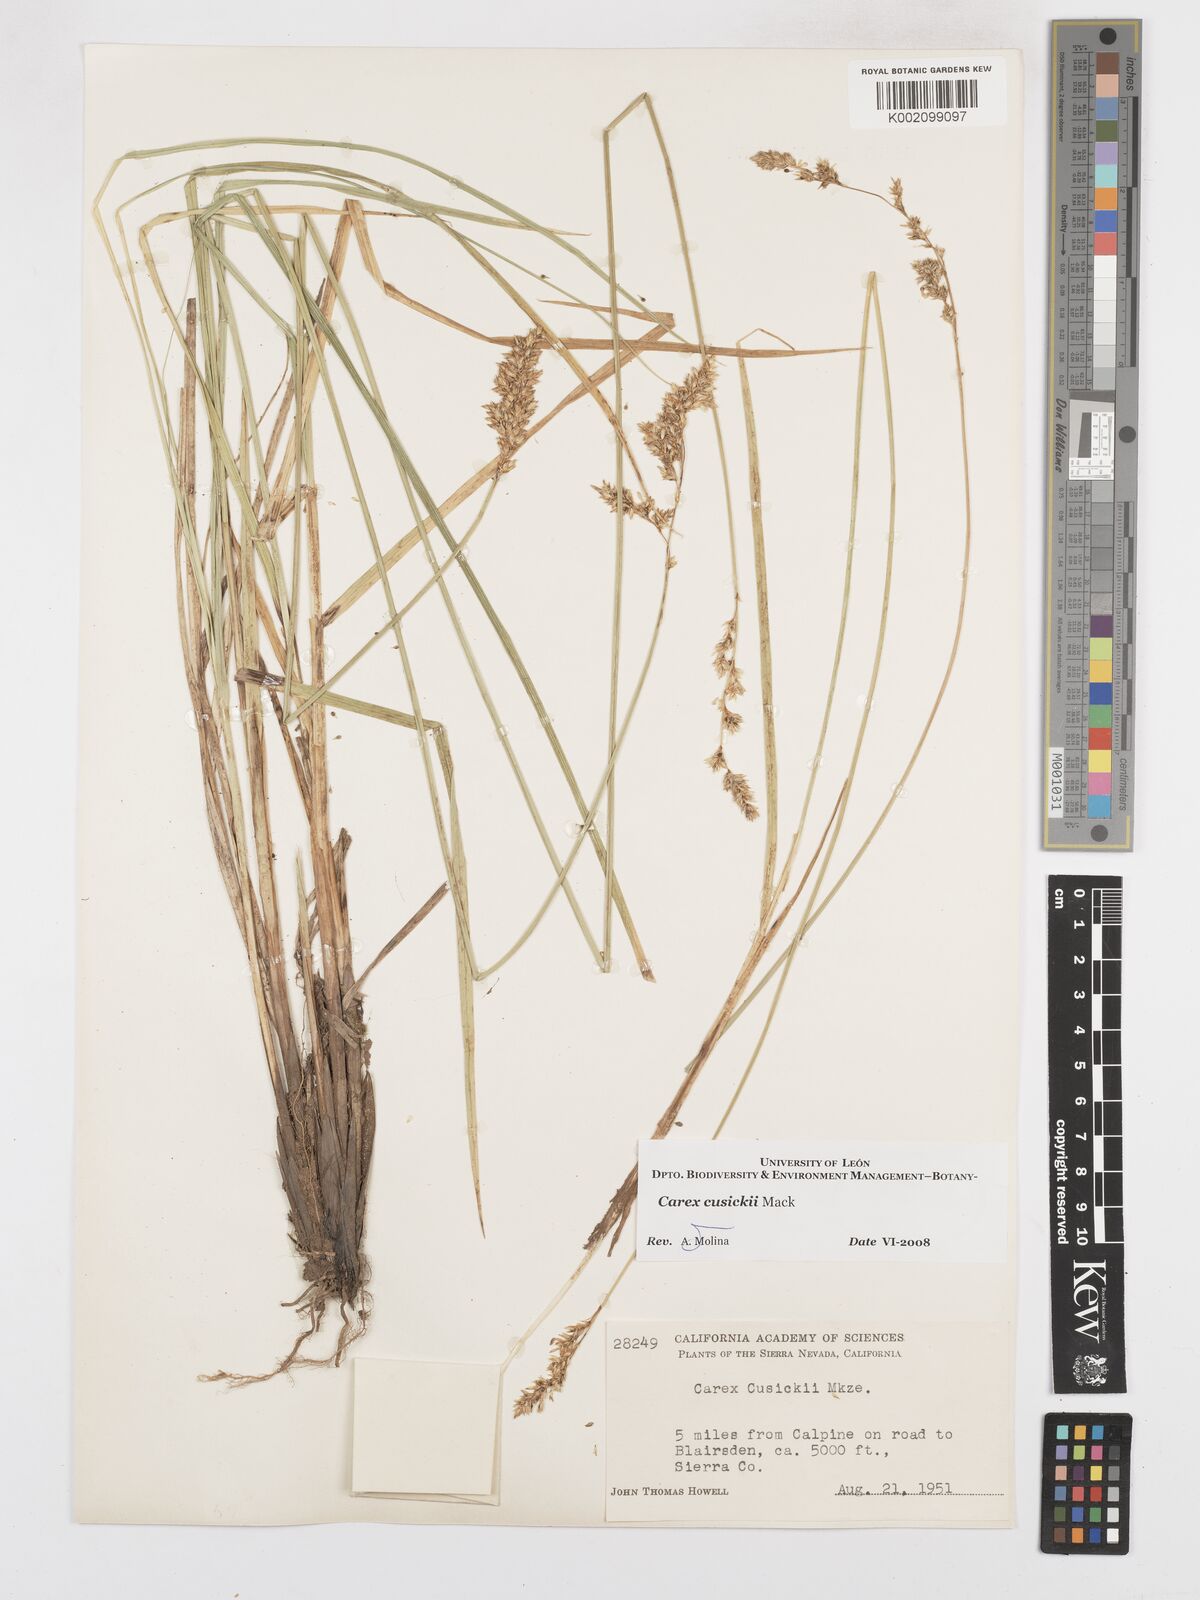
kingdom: Plantae
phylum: Tracheophyta
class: Liliopsida
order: Poales
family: Cyperaceae
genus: Carex
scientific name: Carex cusickii
